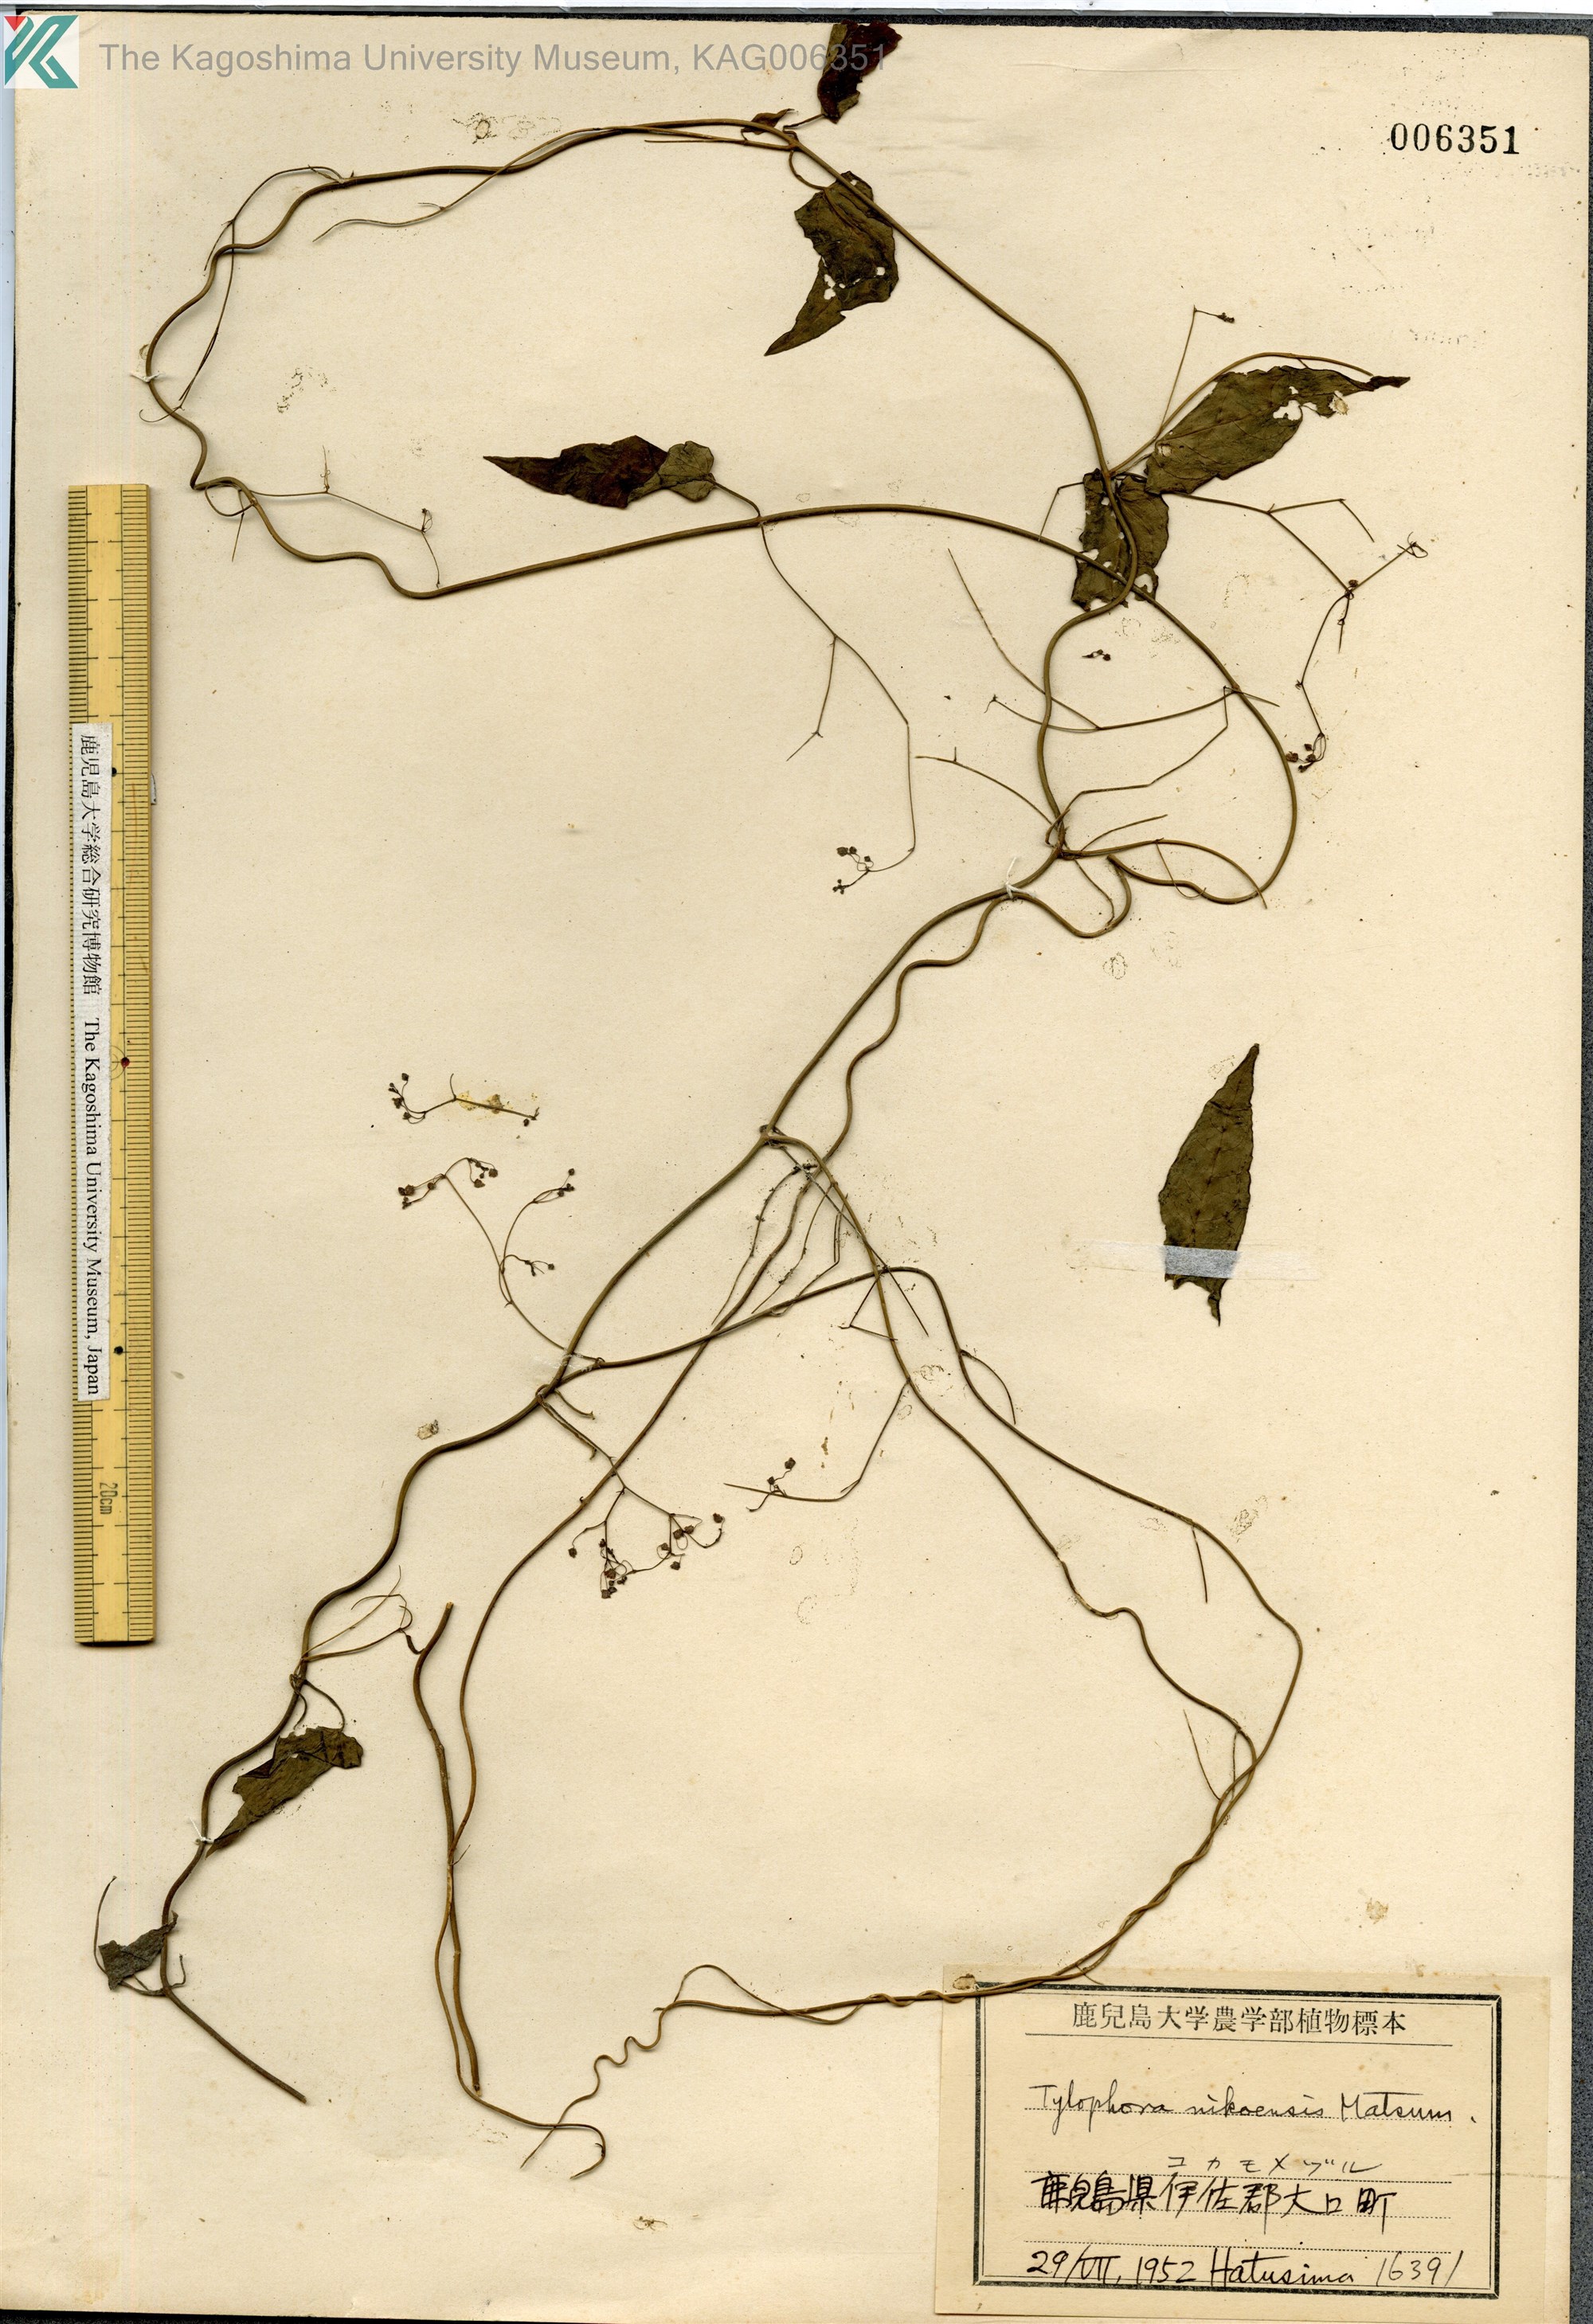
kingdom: Plantae
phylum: Tracheophyta
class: Magnoliopsida
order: Gentianales
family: Apocynaceae
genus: Vincetoxicum
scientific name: Vincetoxicum nikoense
